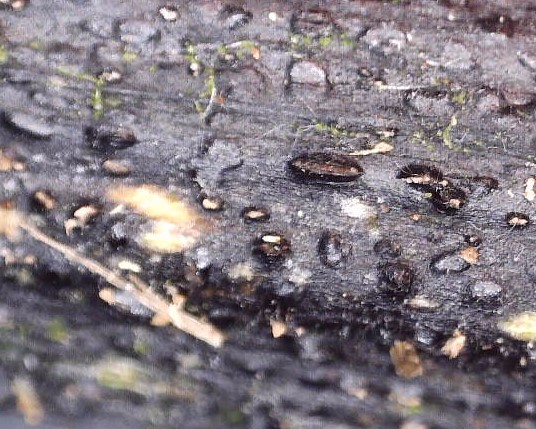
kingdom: Fungi
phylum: Ascomycota
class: Sordariomycetes
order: Diaporthales
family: Diaporthaceae
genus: Diaporthopsis
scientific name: Diaporthopsis urticae
